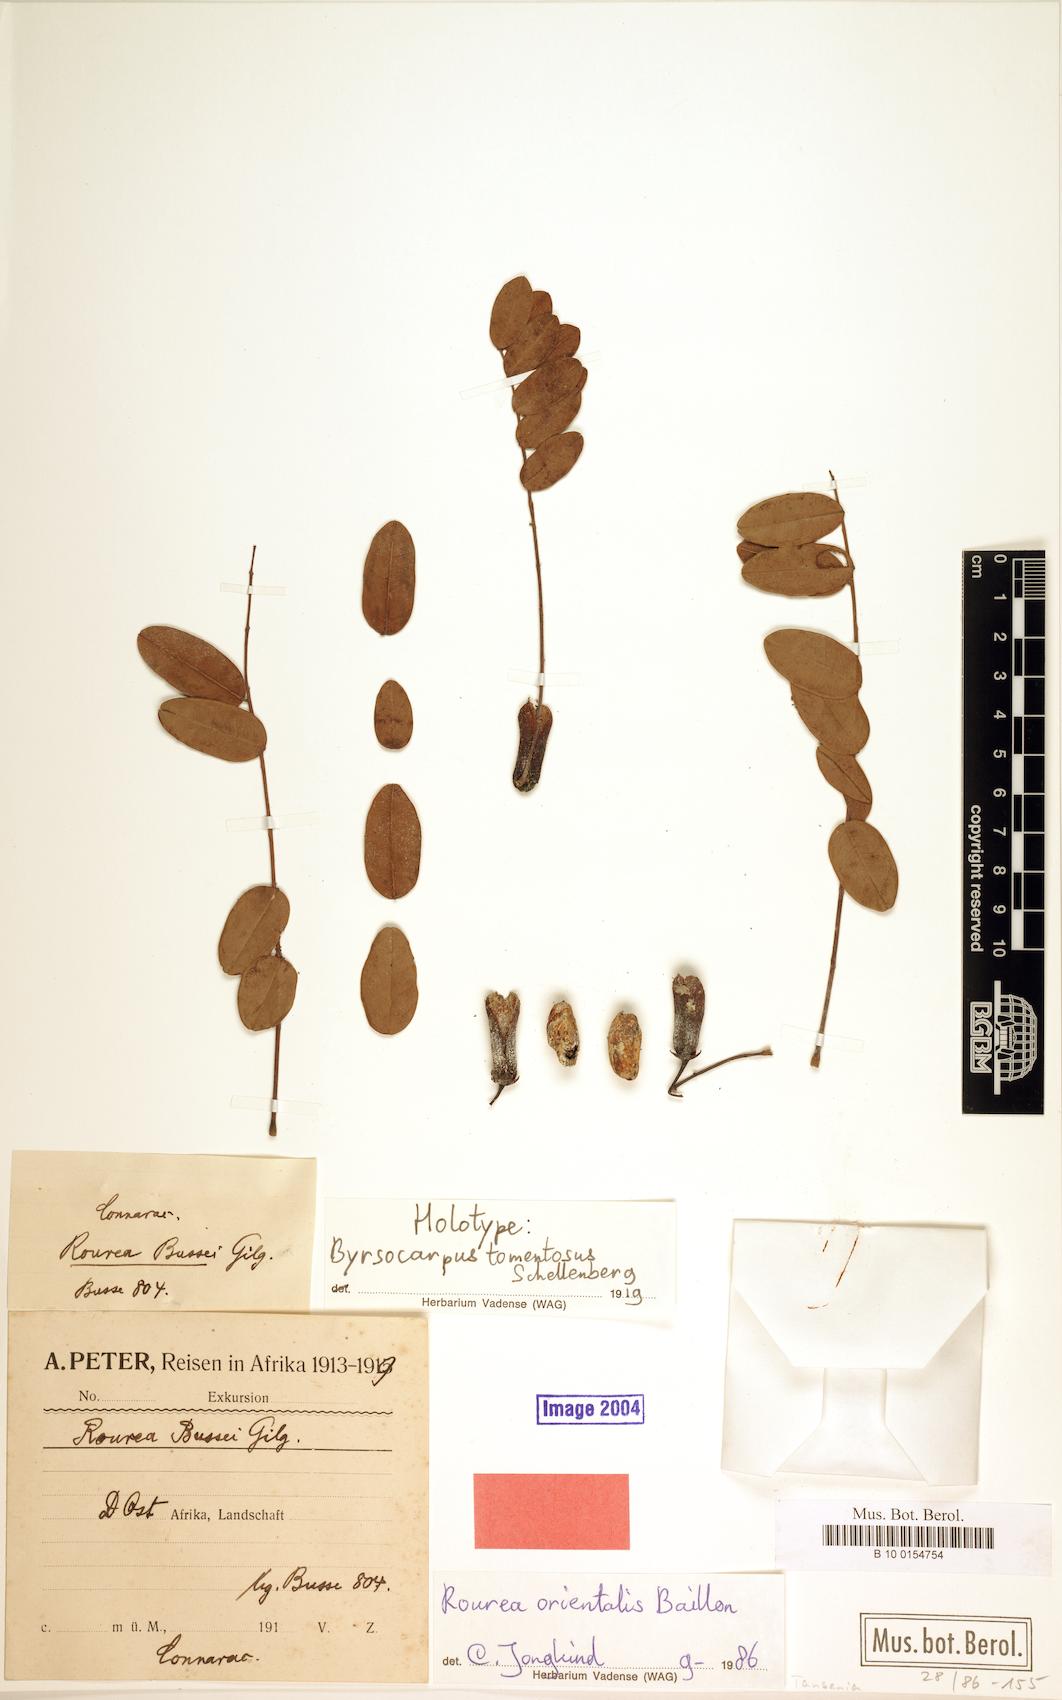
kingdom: Plantae
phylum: Tracheophyta
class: Magnoliopsida
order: Oxalidales
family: Connaraceae
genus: Rourea
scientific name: Rourea orientalis
